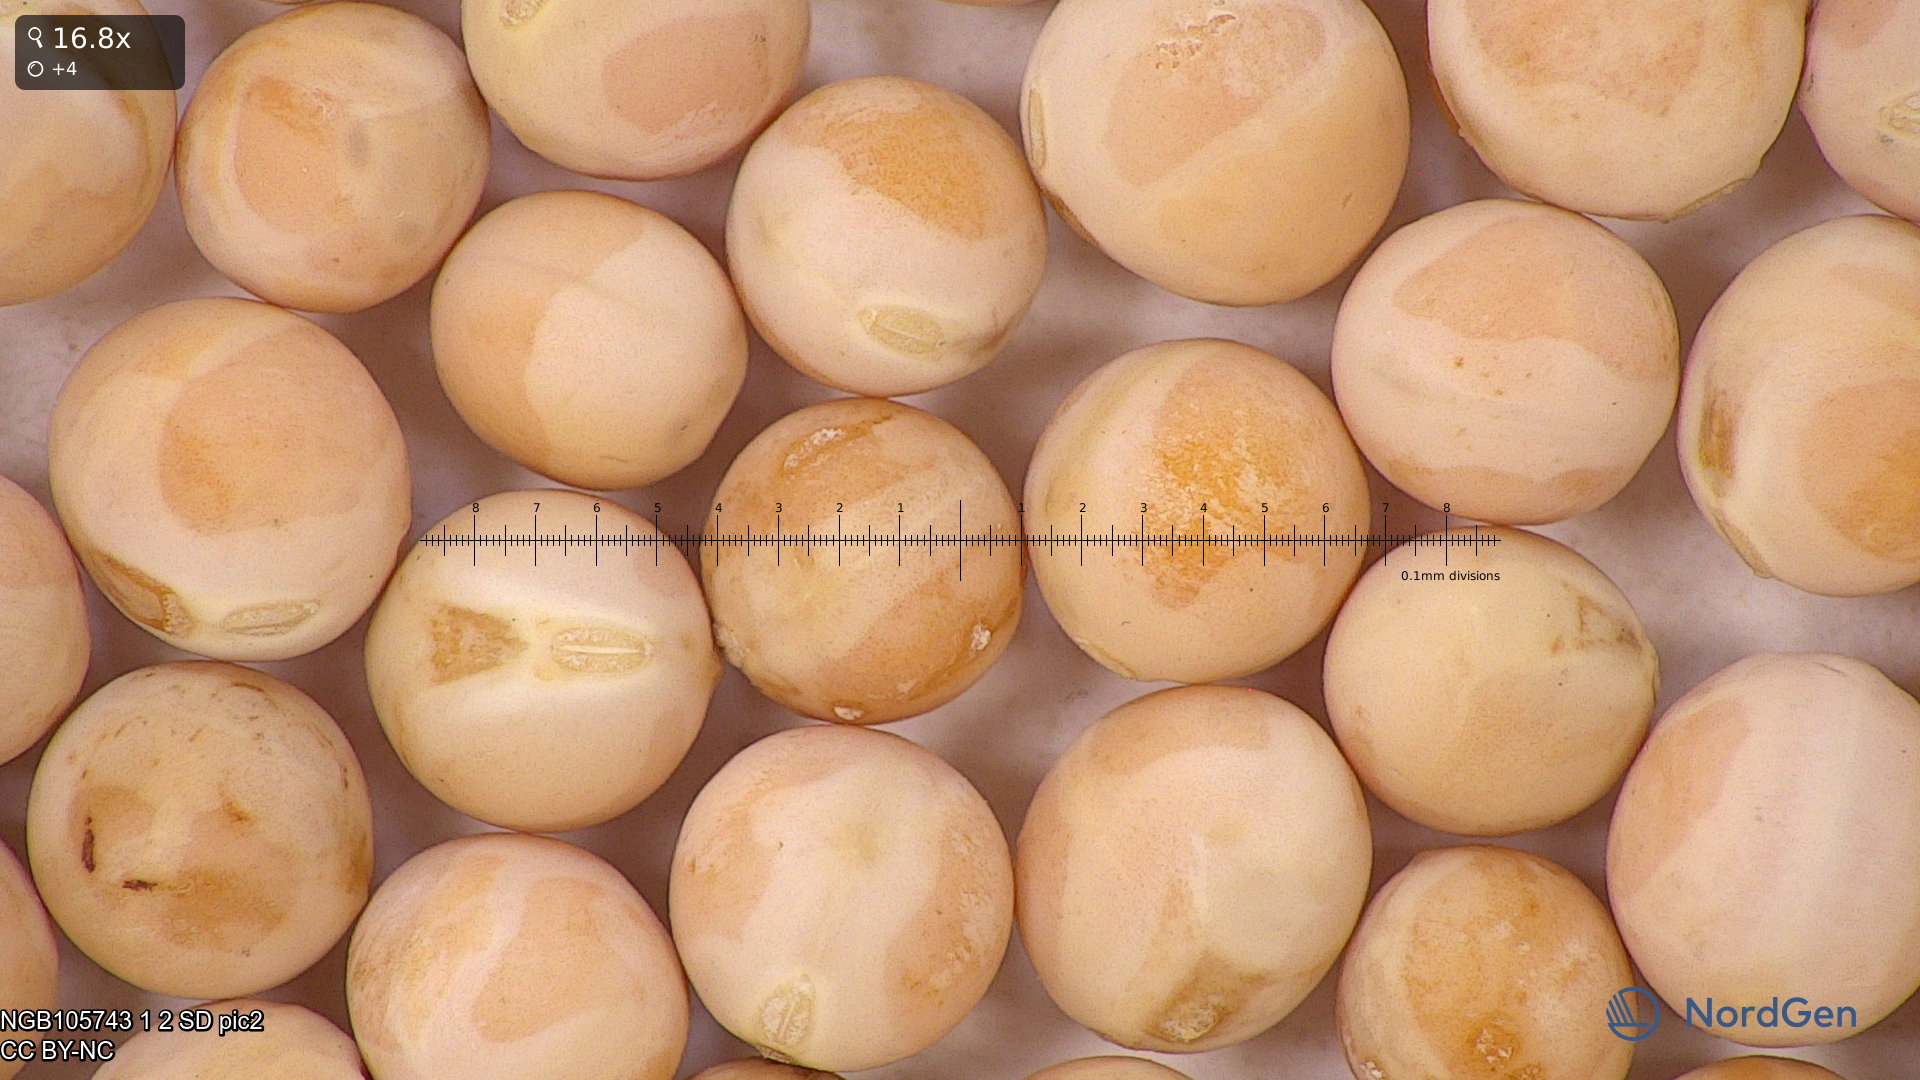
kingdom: Plantae
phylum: Tracheophyta
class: Magnoliopsida
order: Fabales
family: Fabaceae
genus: Lathyrus
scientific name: Lathyrus oleraceus
